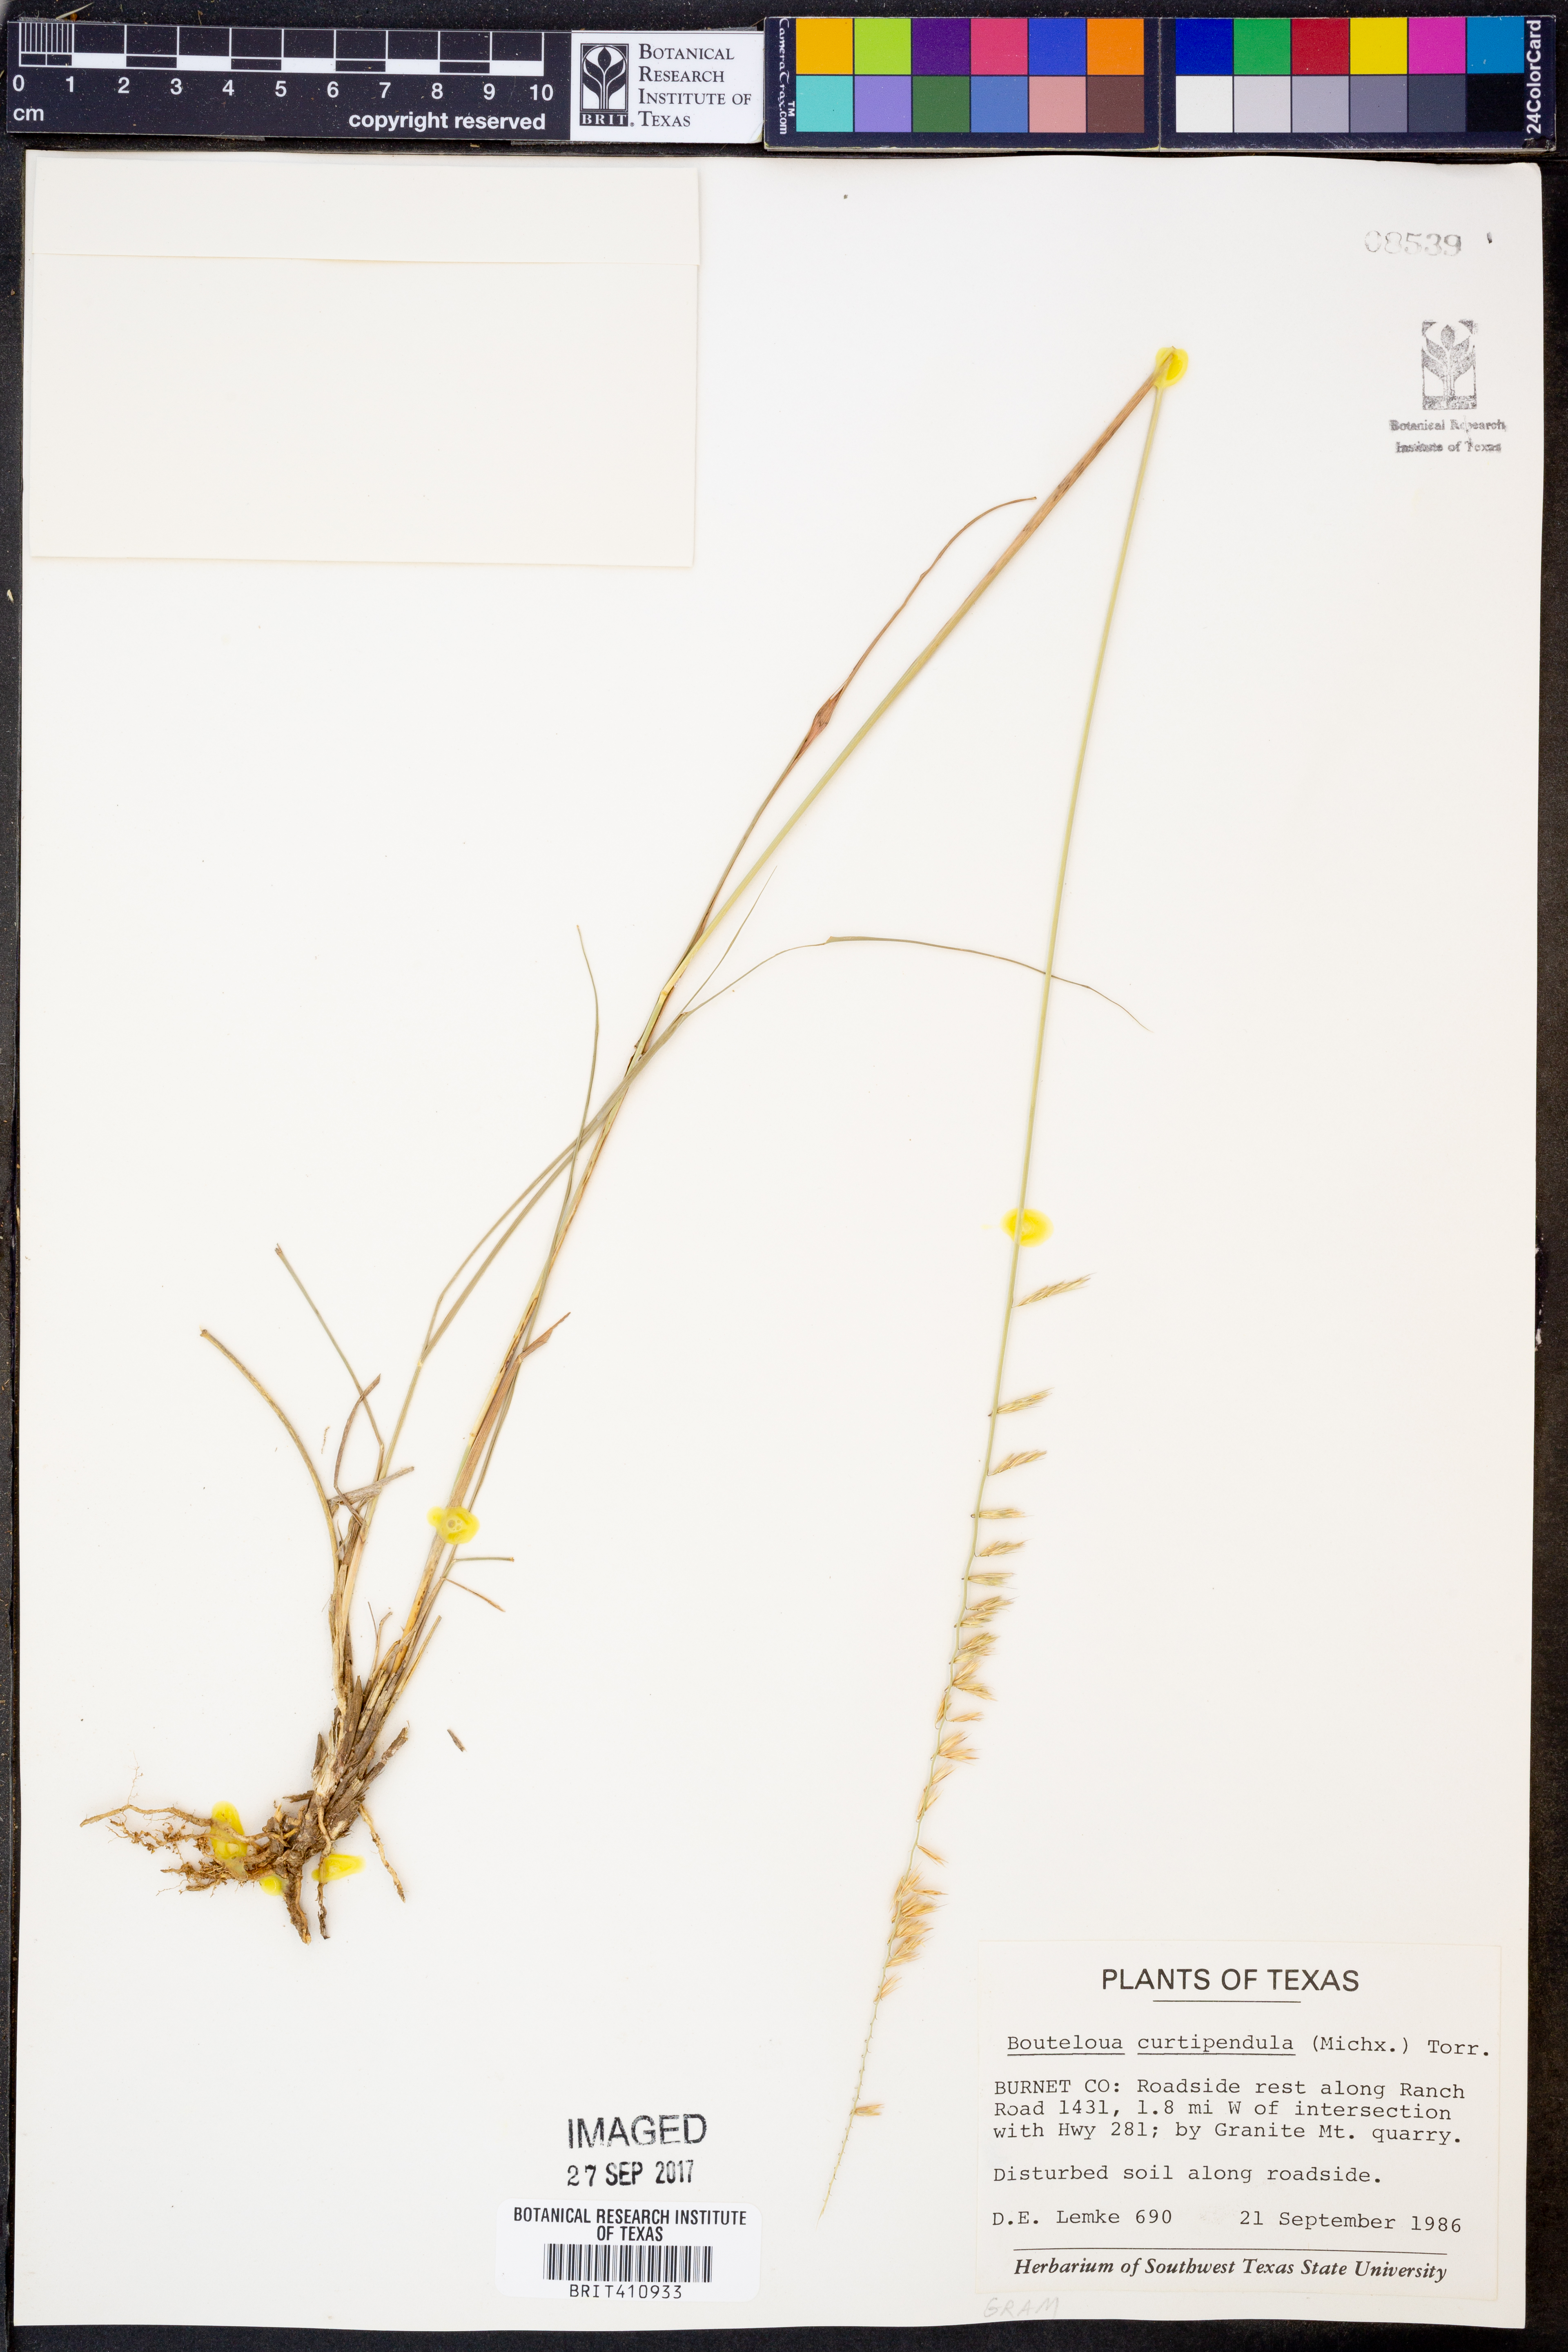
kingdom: Plantae
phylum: Tracheophyta
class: Liliopsida
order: Poales
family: Poaceae
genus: Bouteloua
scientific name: Bouteloua curtipendula
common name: Side-oats grama
